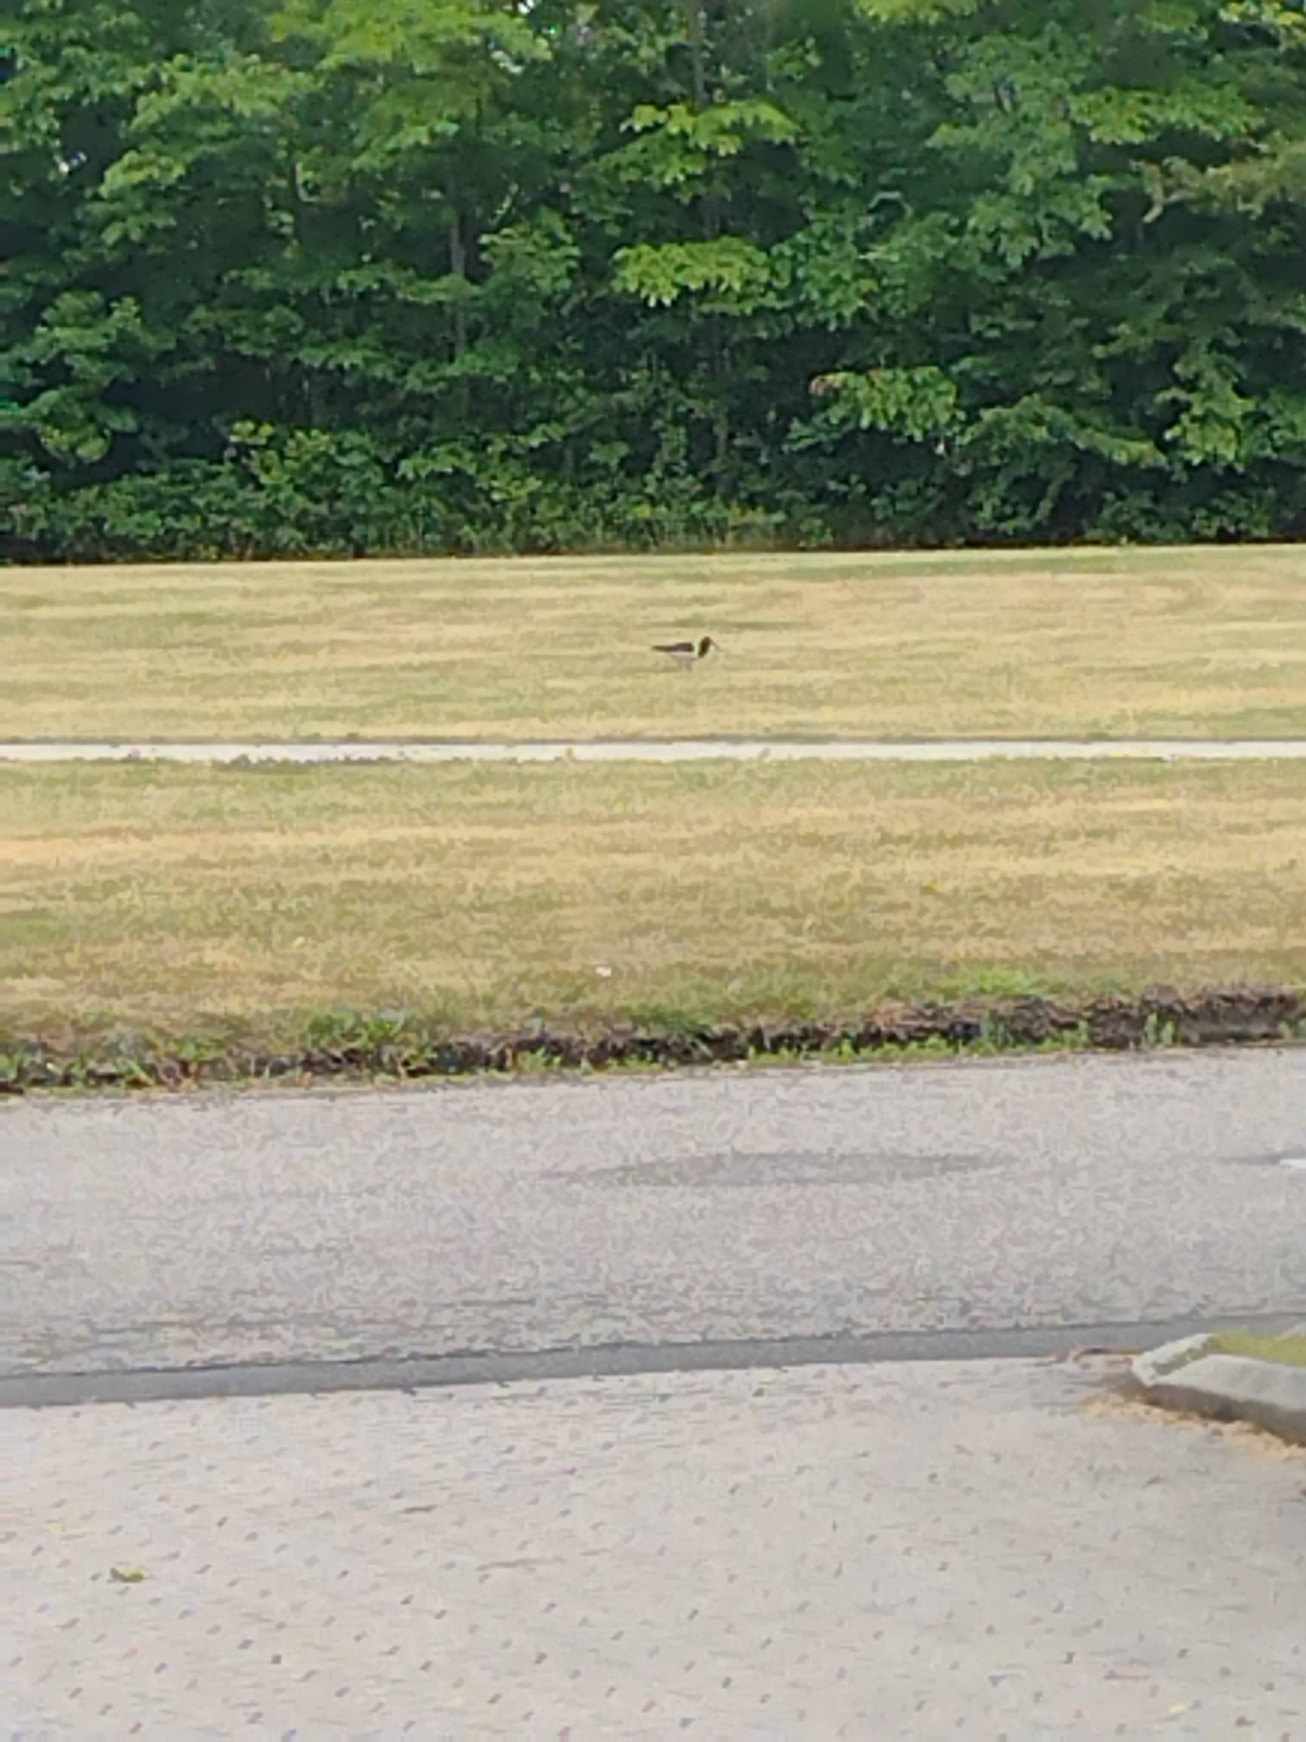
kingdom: Animalia
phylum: Chordata
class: Aves
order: Charadriiformes
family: Haematopodidae
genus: Haematopus
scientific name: Haematopus ostralegus
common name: Strandskade
